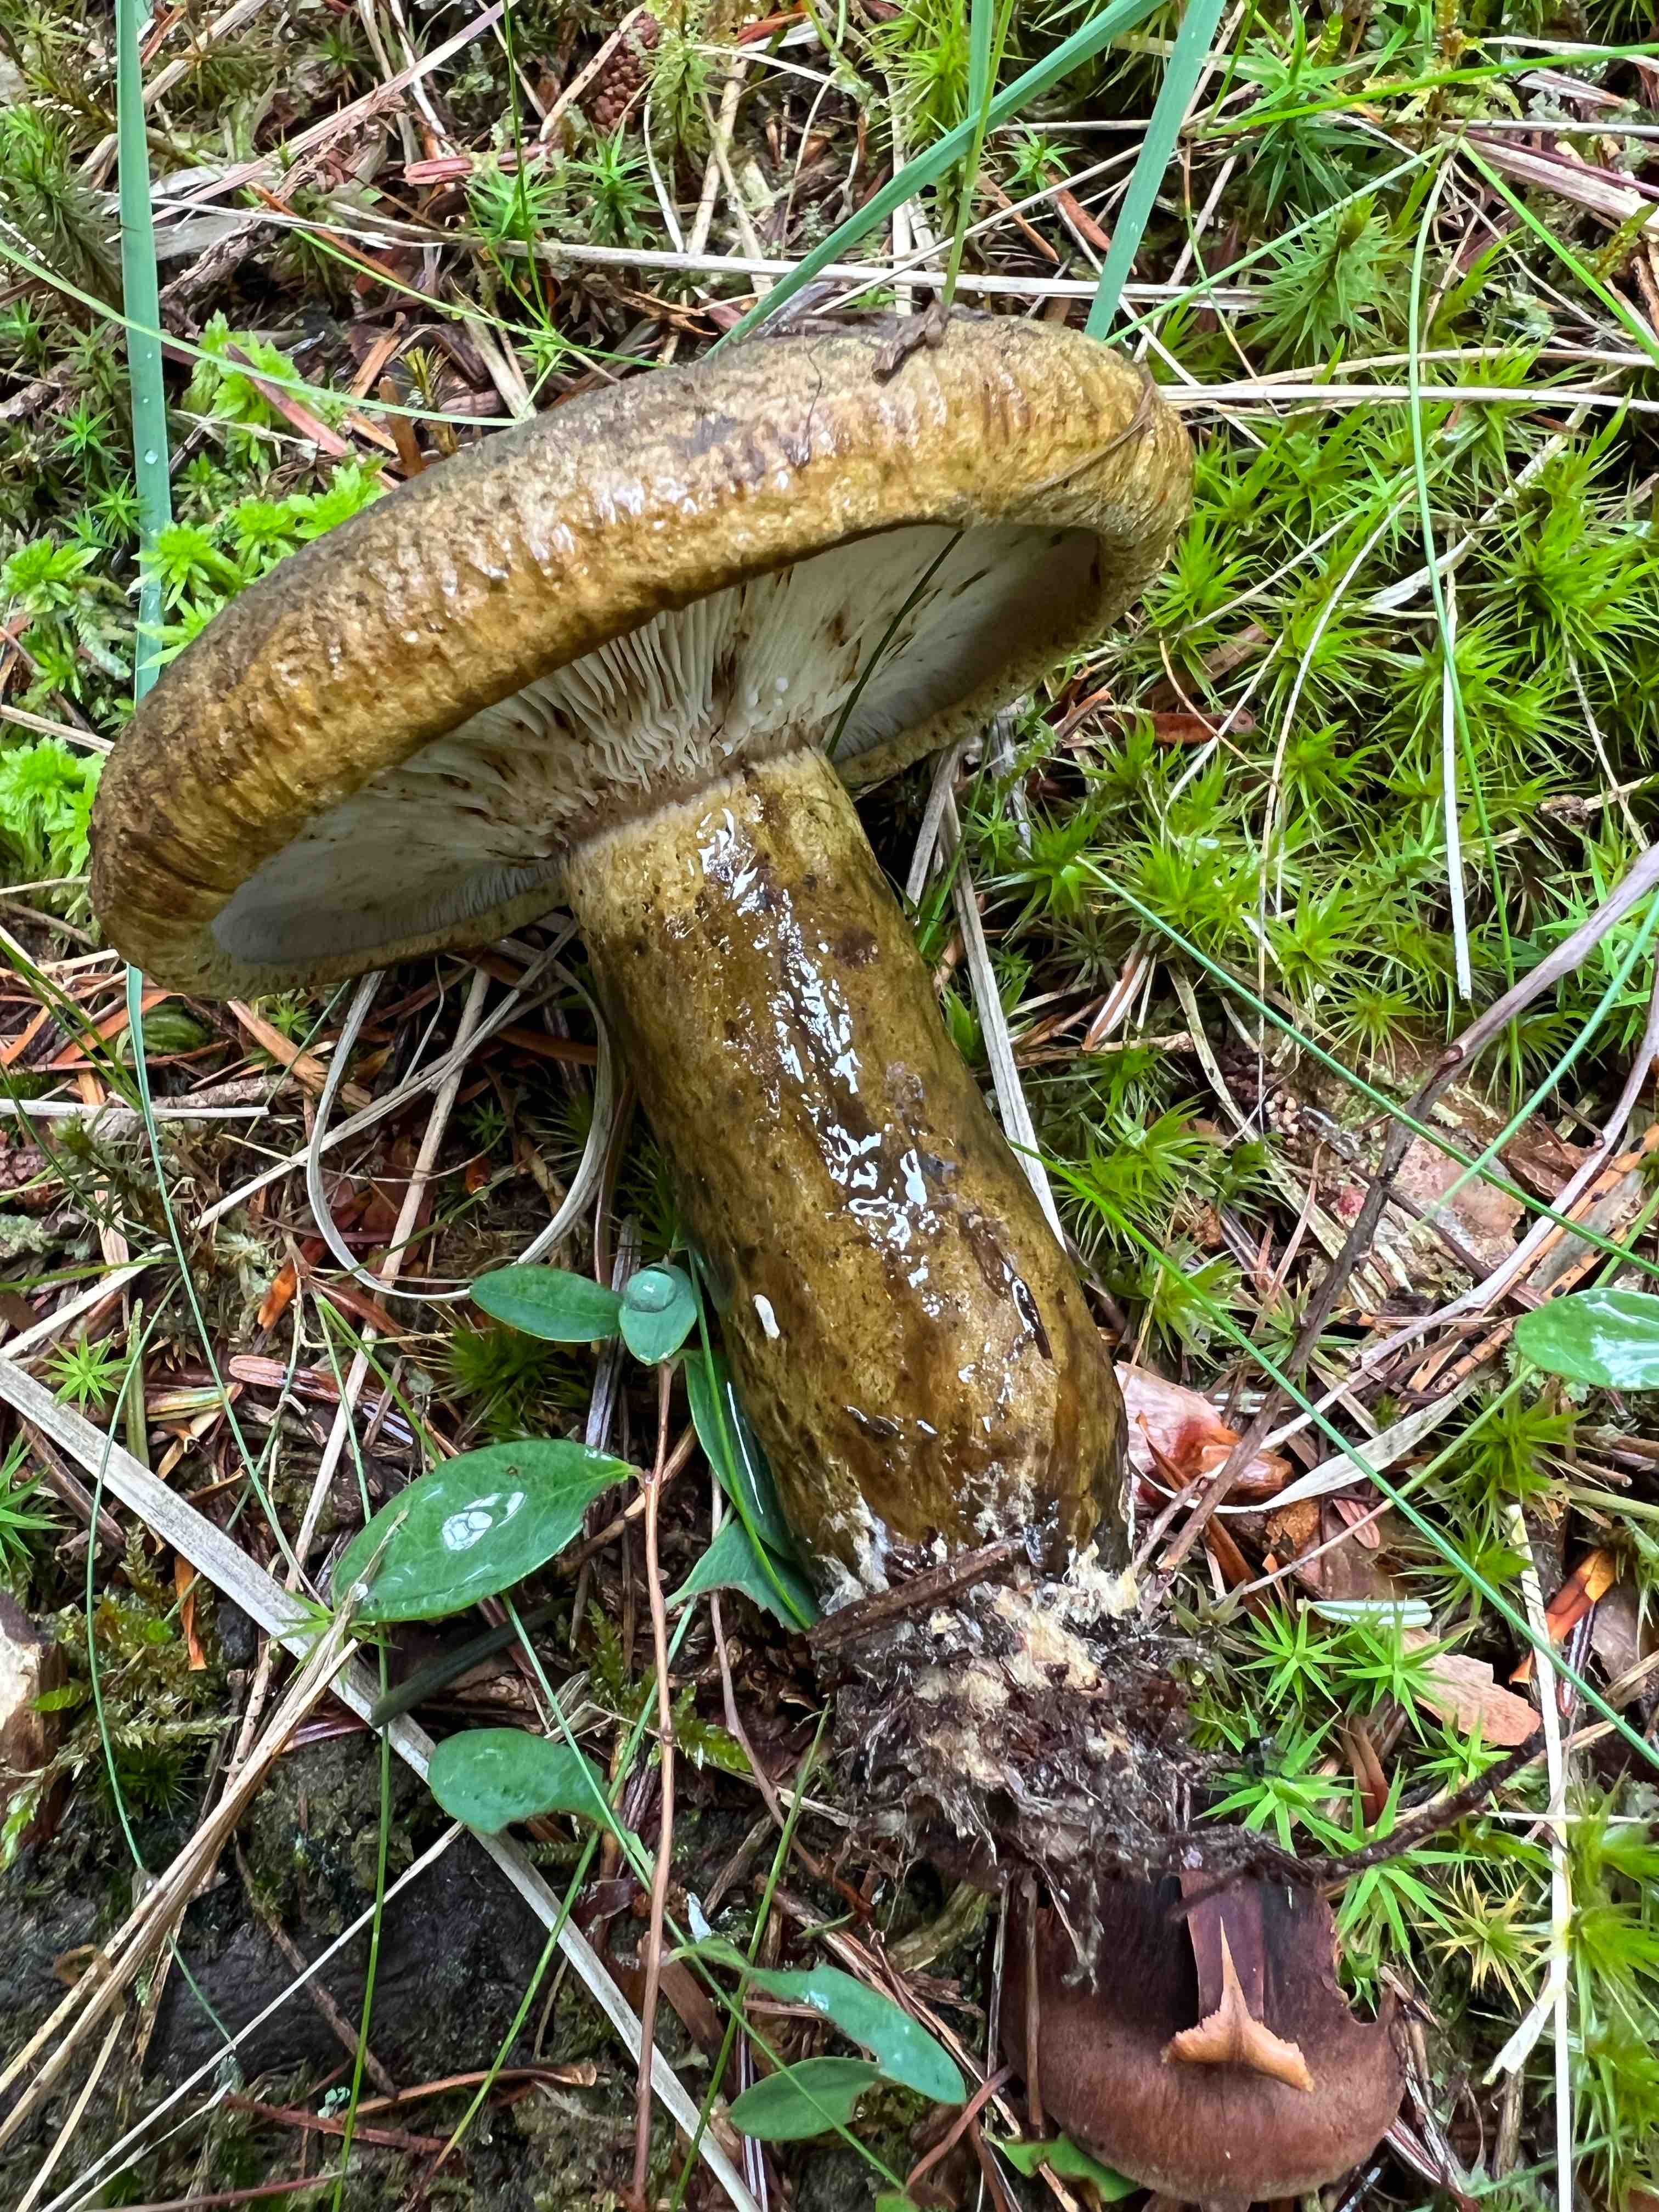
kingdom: Fungi
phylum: Basidiomycota
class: Agaricomycetes
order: Russulales
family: Russulaceae
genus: Lactarius
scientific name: Lactarius necator
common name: manddraber-mælkehat
